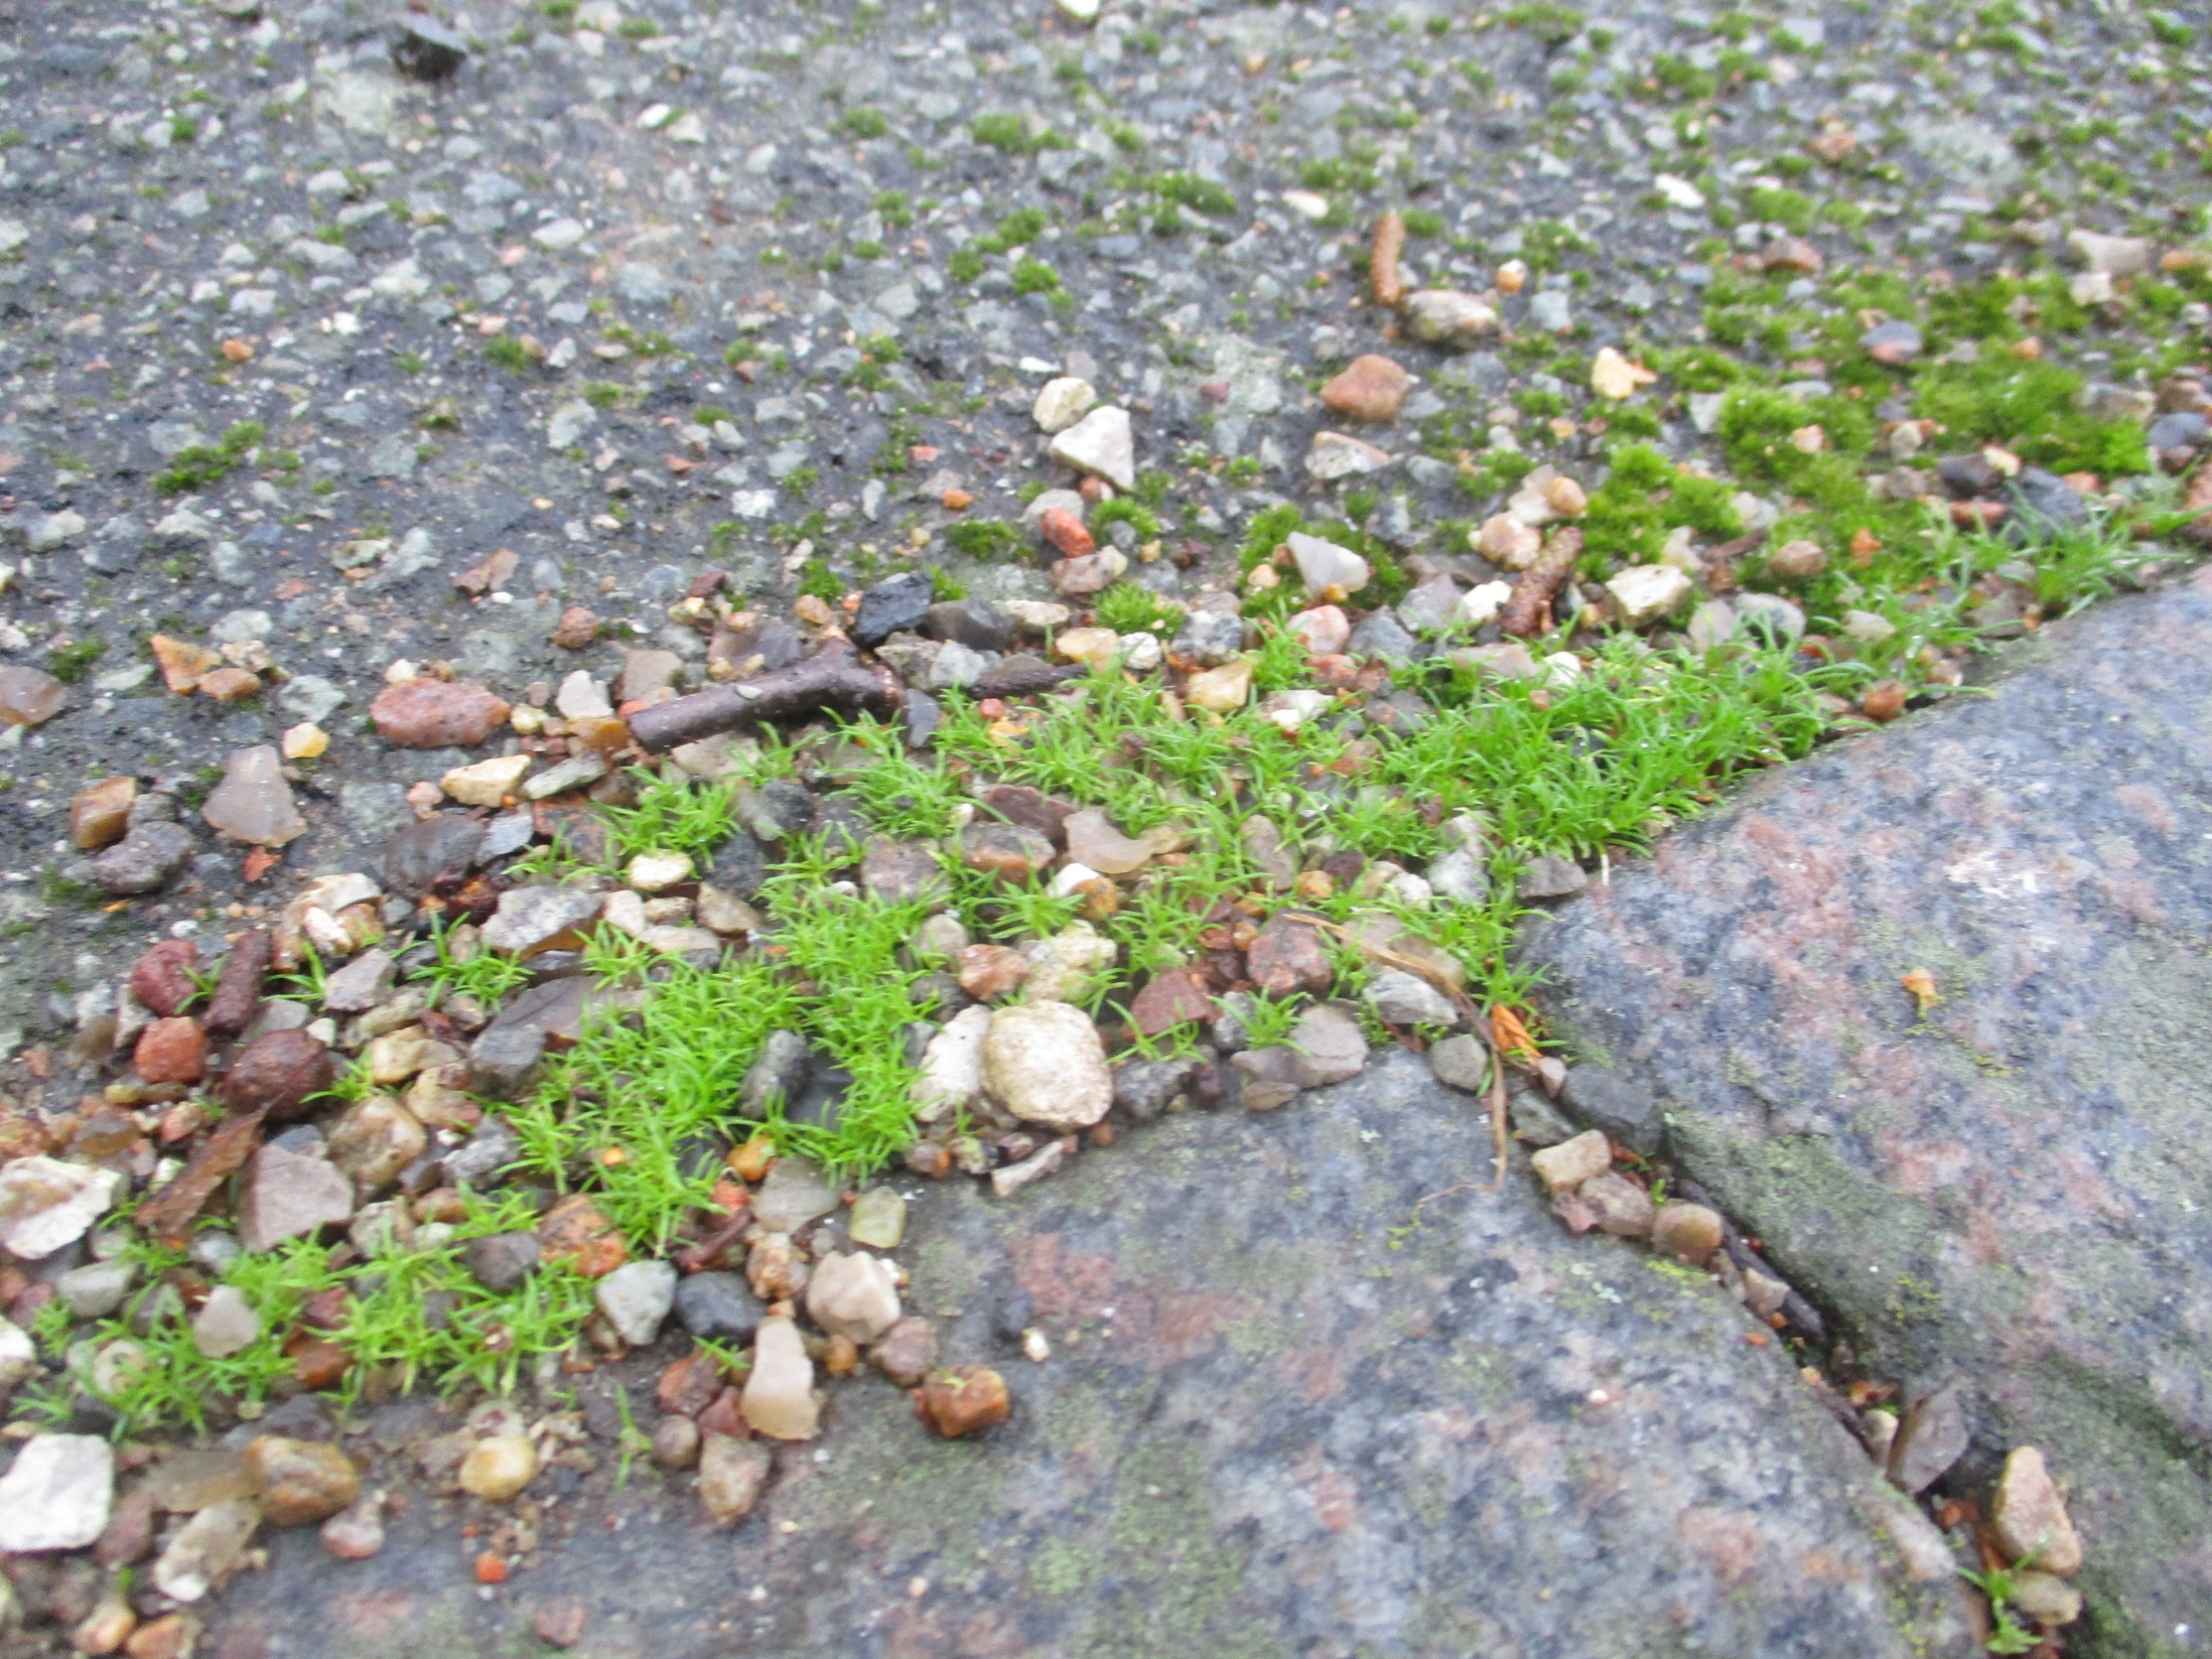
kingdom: Plantae
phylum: Tracheophyta
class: Magnoliopsida
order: Caryophyllales
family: Caryophyllaceae
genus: Sagina
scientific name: Sagina procumbens
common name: Almindelig firling
